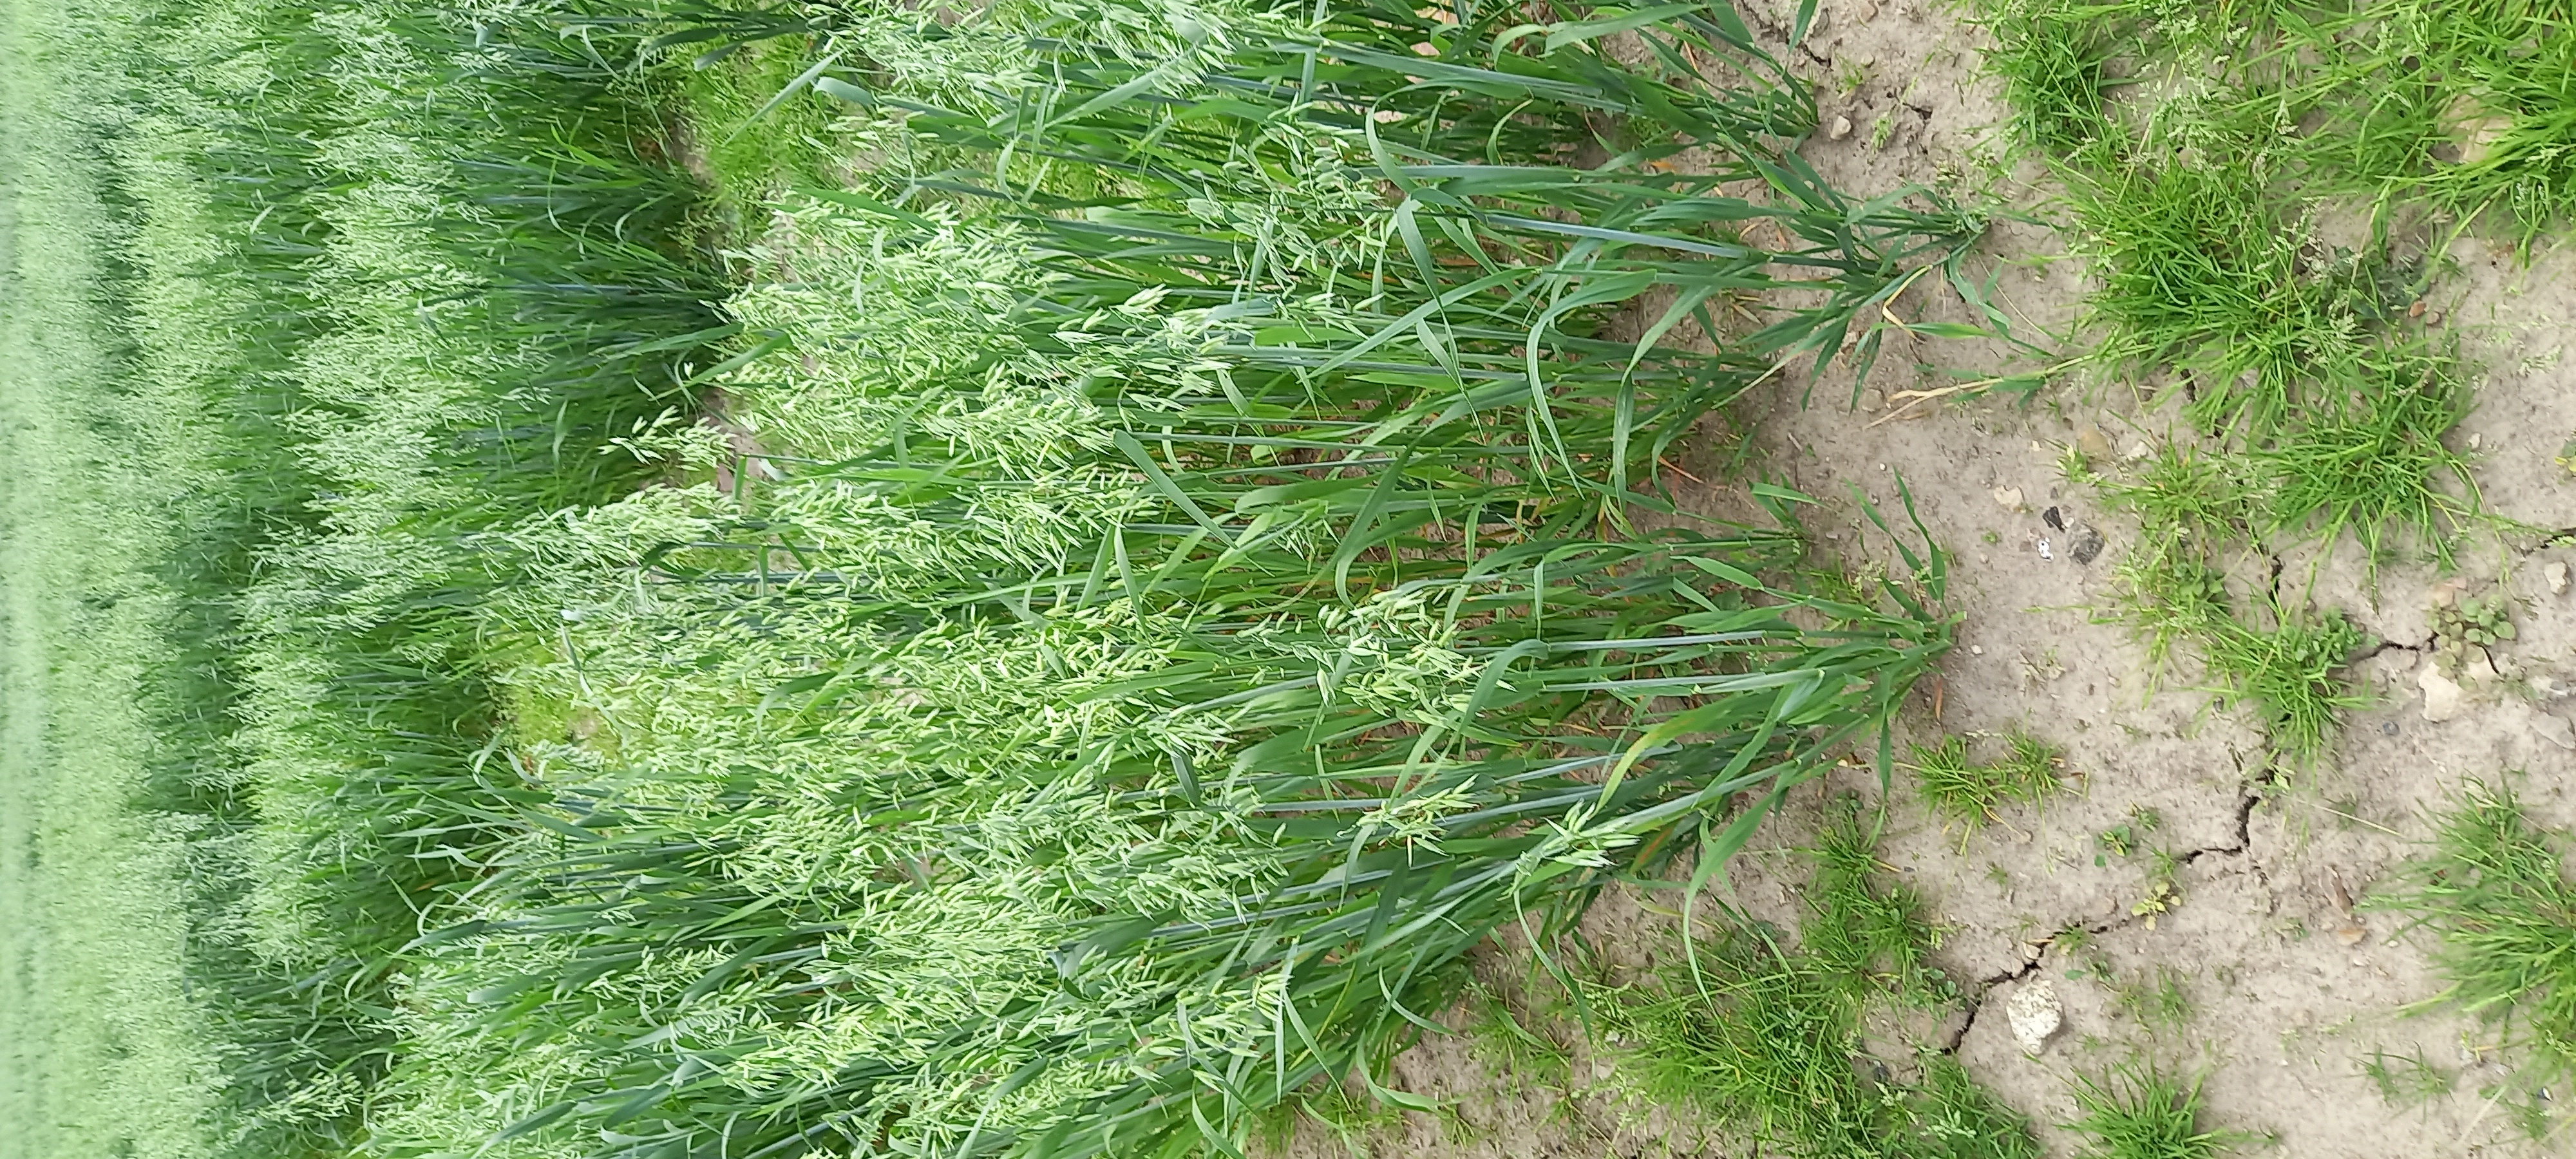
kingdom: Plantae
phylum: Tracheophyta
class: Liliopsida
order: Poales
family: Poaceae
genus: Avena
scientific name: Avena sativa
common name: Oat
